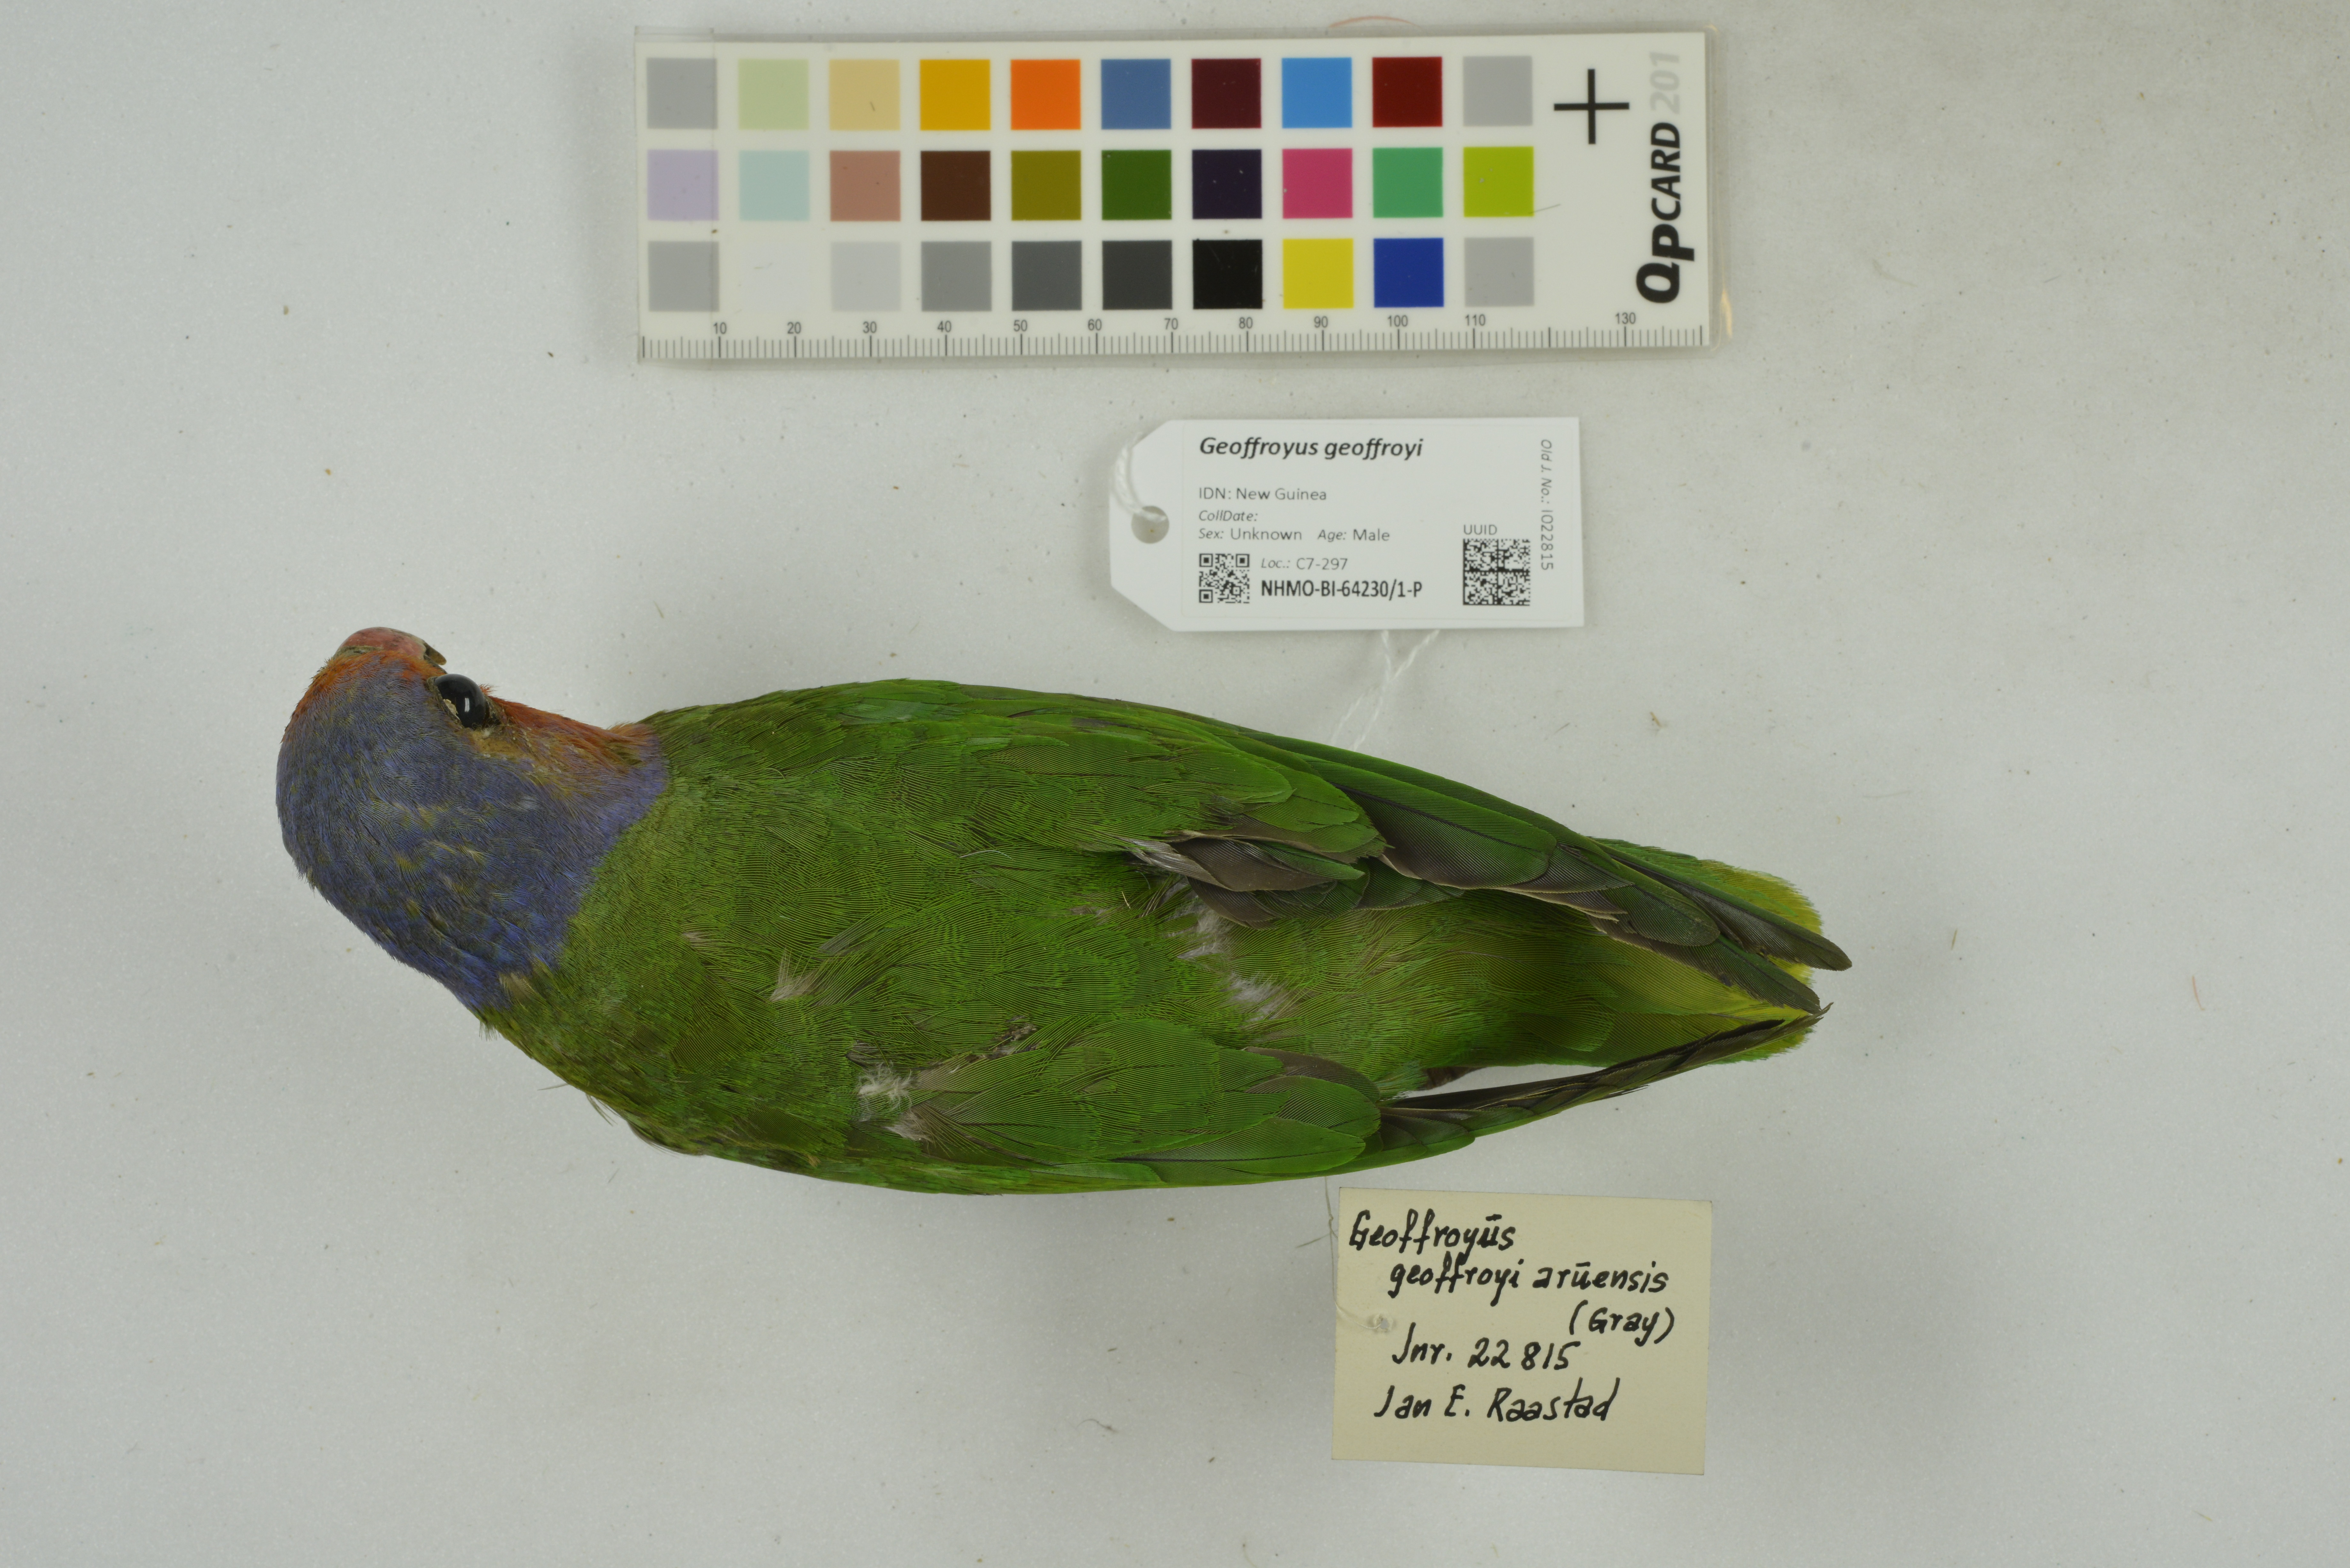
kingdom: Animalia
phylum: Chordata
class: Aves
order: Psittaciformes
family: Psittacidae
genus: Geoffroyus
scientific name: Geoffroyus geoffroyi
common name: Red-cheeked parrot
